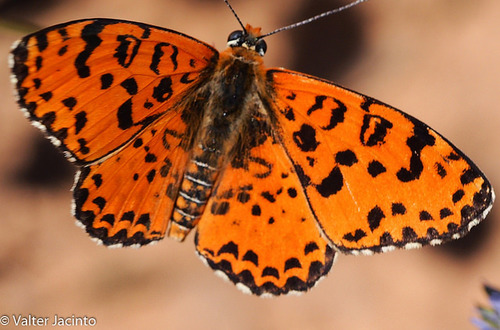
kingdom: Animalia
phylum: Arthropoda
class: Insecta
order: Lepidoptera
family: Nymphalidae
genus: Melitaea
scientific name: Melitaea didyma
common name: Spotted fritillary
